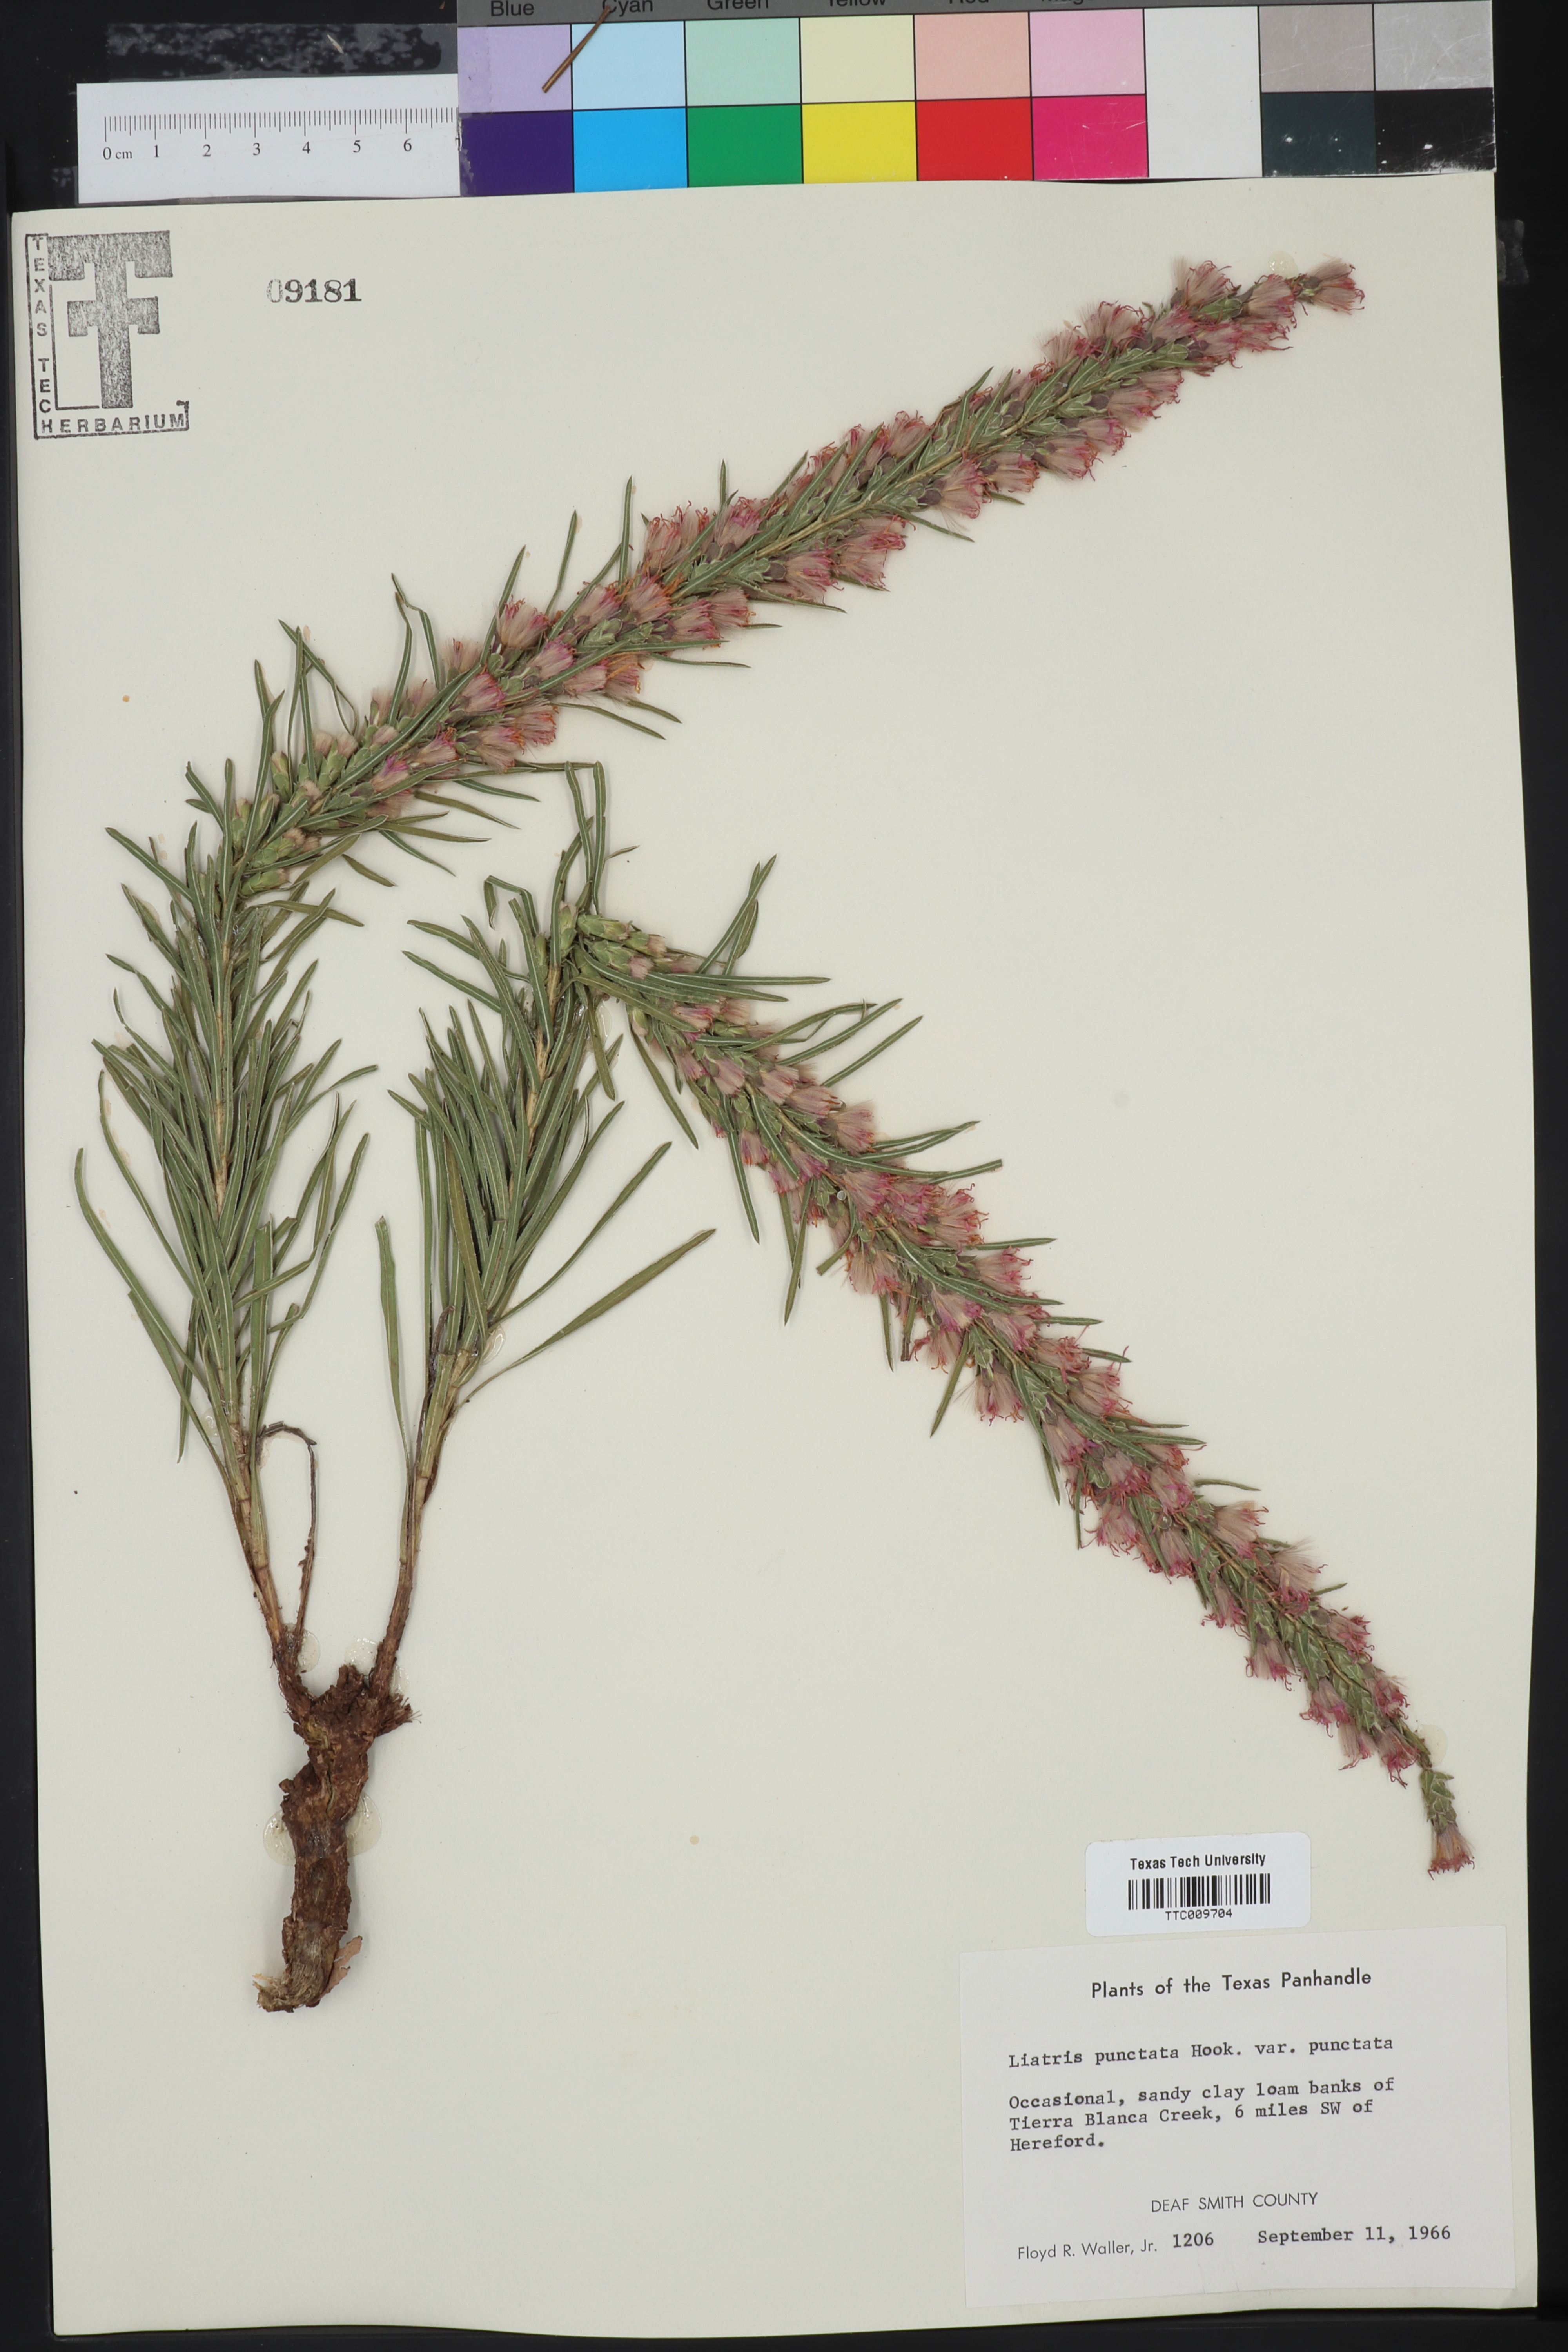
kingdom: Plantae
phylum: Tracheophyta
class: Magnoliopsida
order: Asterales
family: Asteraceae
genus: Liatris
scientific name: Liatris punctata
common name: Dotted gayfeather
